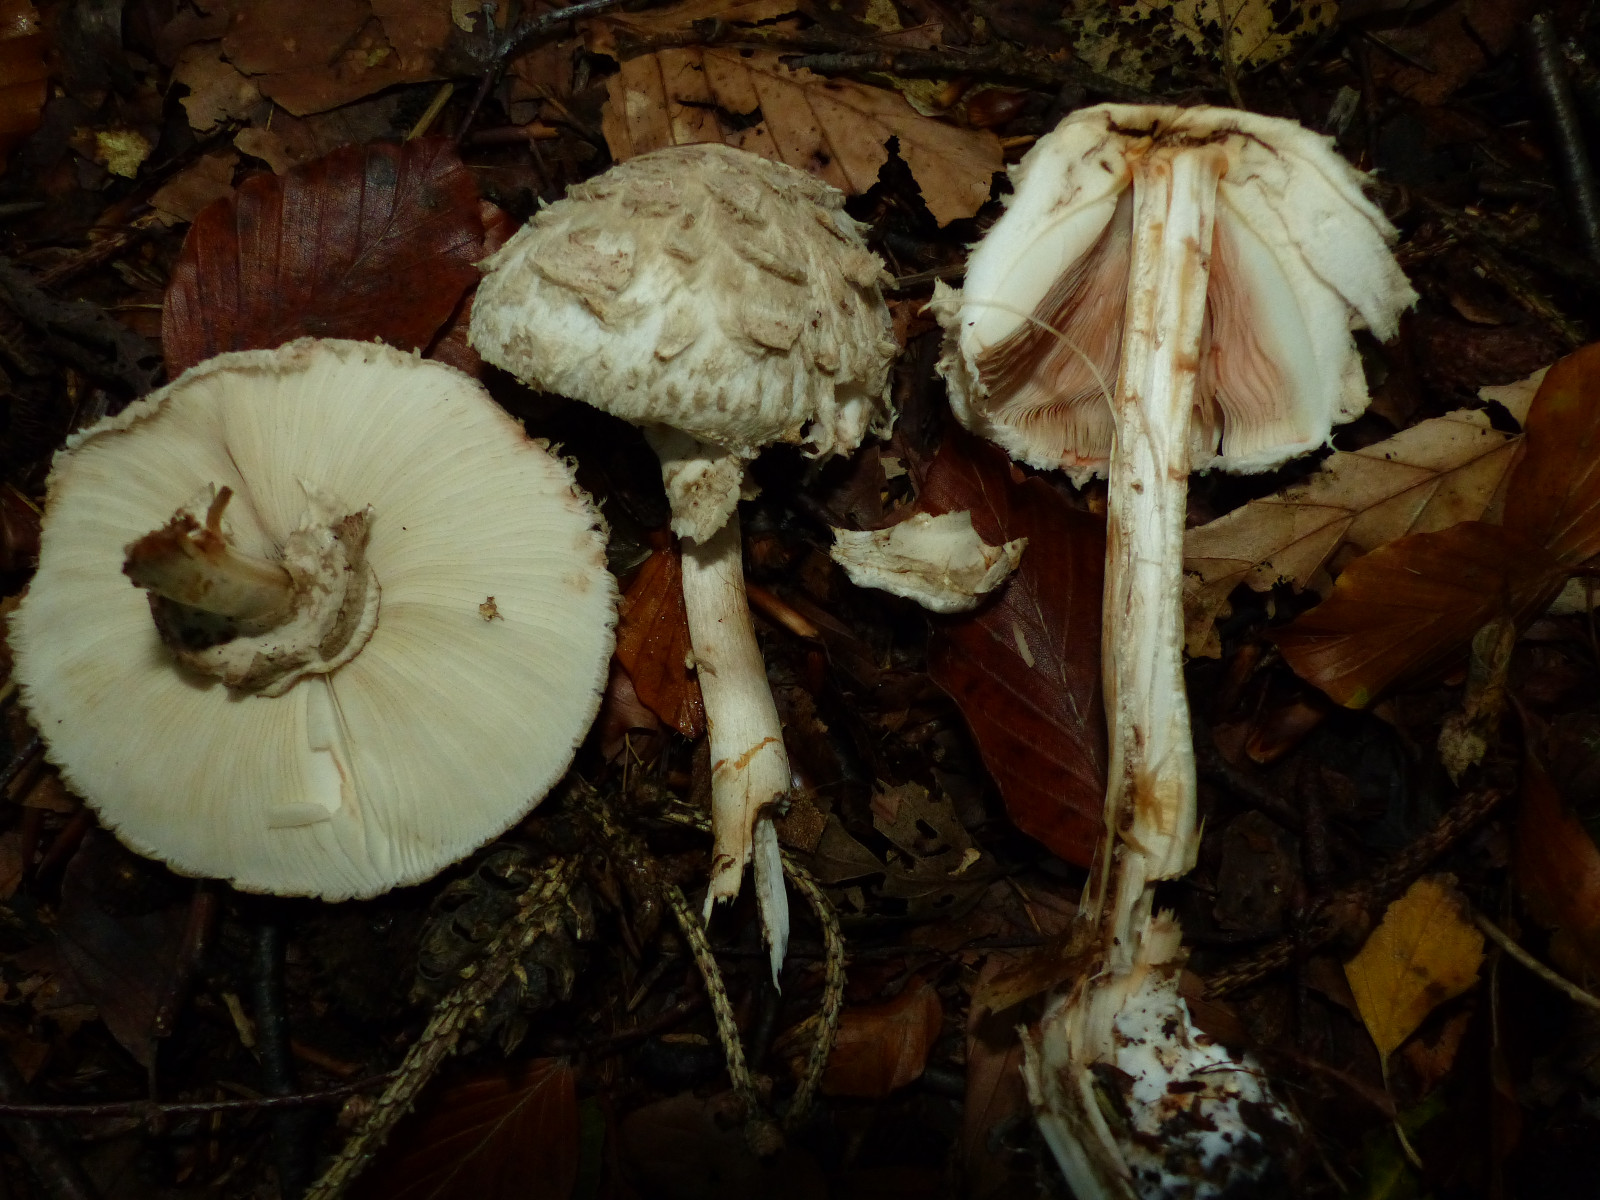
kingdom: Fungi
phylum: Basidiomycota
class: Agaricomycetes
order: Agaricales
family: Agaricaceae
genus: Chlorophyllum
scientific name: Chlorophyllum olivieri
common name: almindelig rabarberhat
